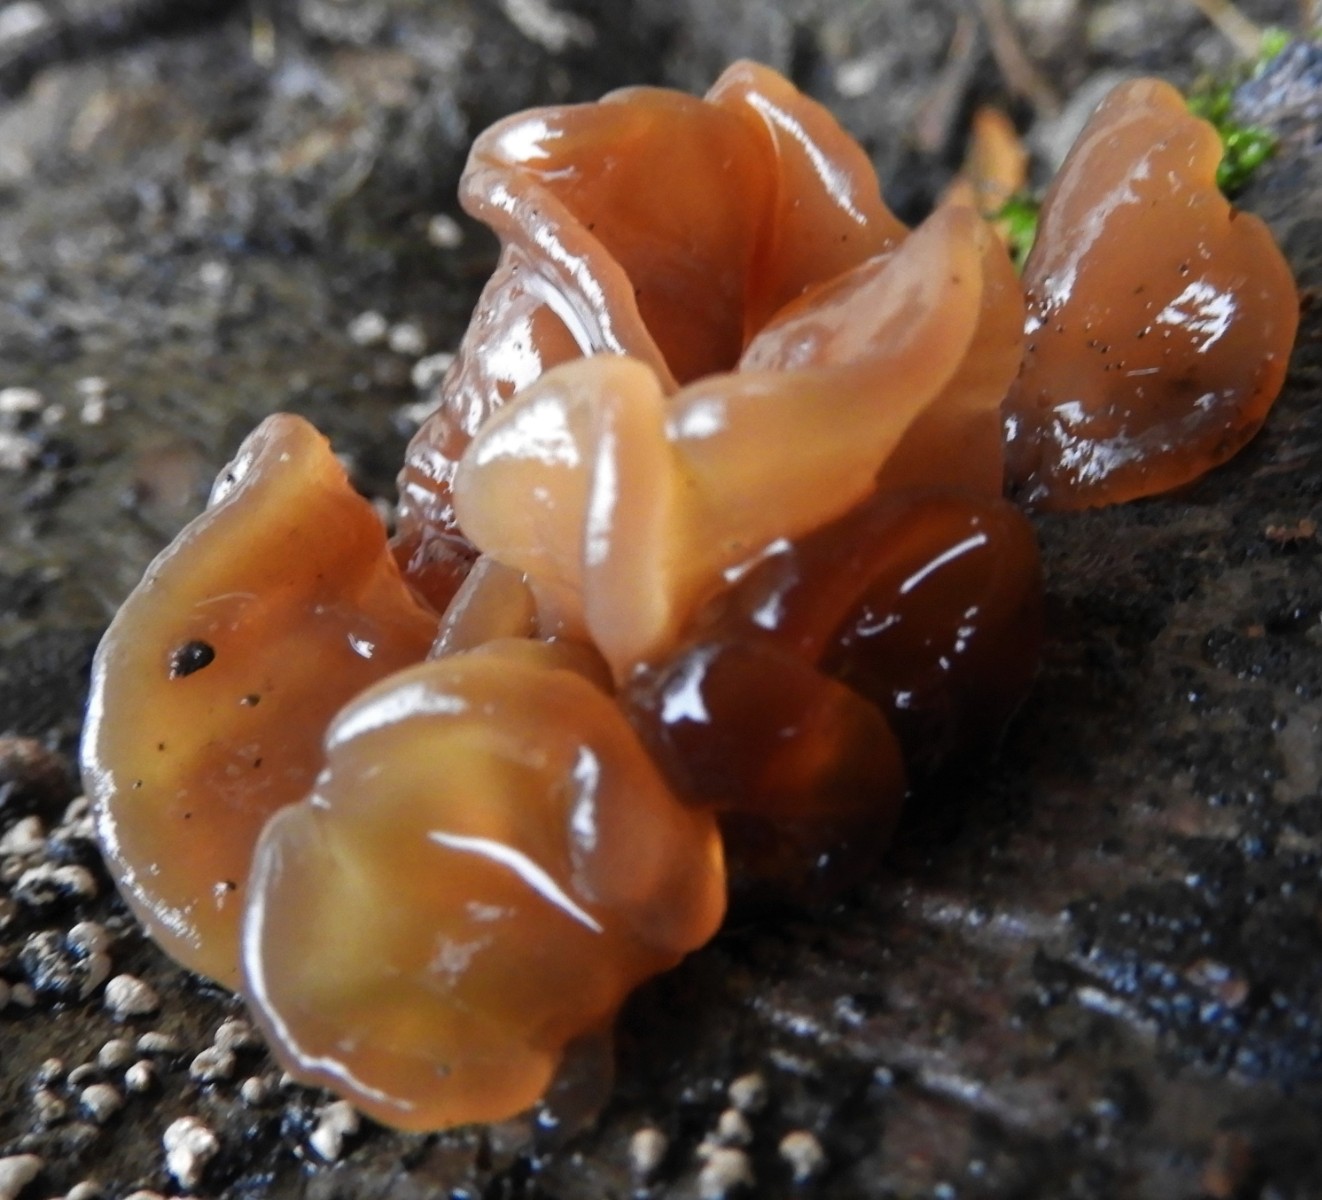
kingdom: Fungi
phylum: Basidiomycota
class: Tremellomycetes
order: Tremellales
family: Tremellaceae
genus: Phaeotremella
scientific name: Phaeotremella foliacea
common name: brun bævresvamp
